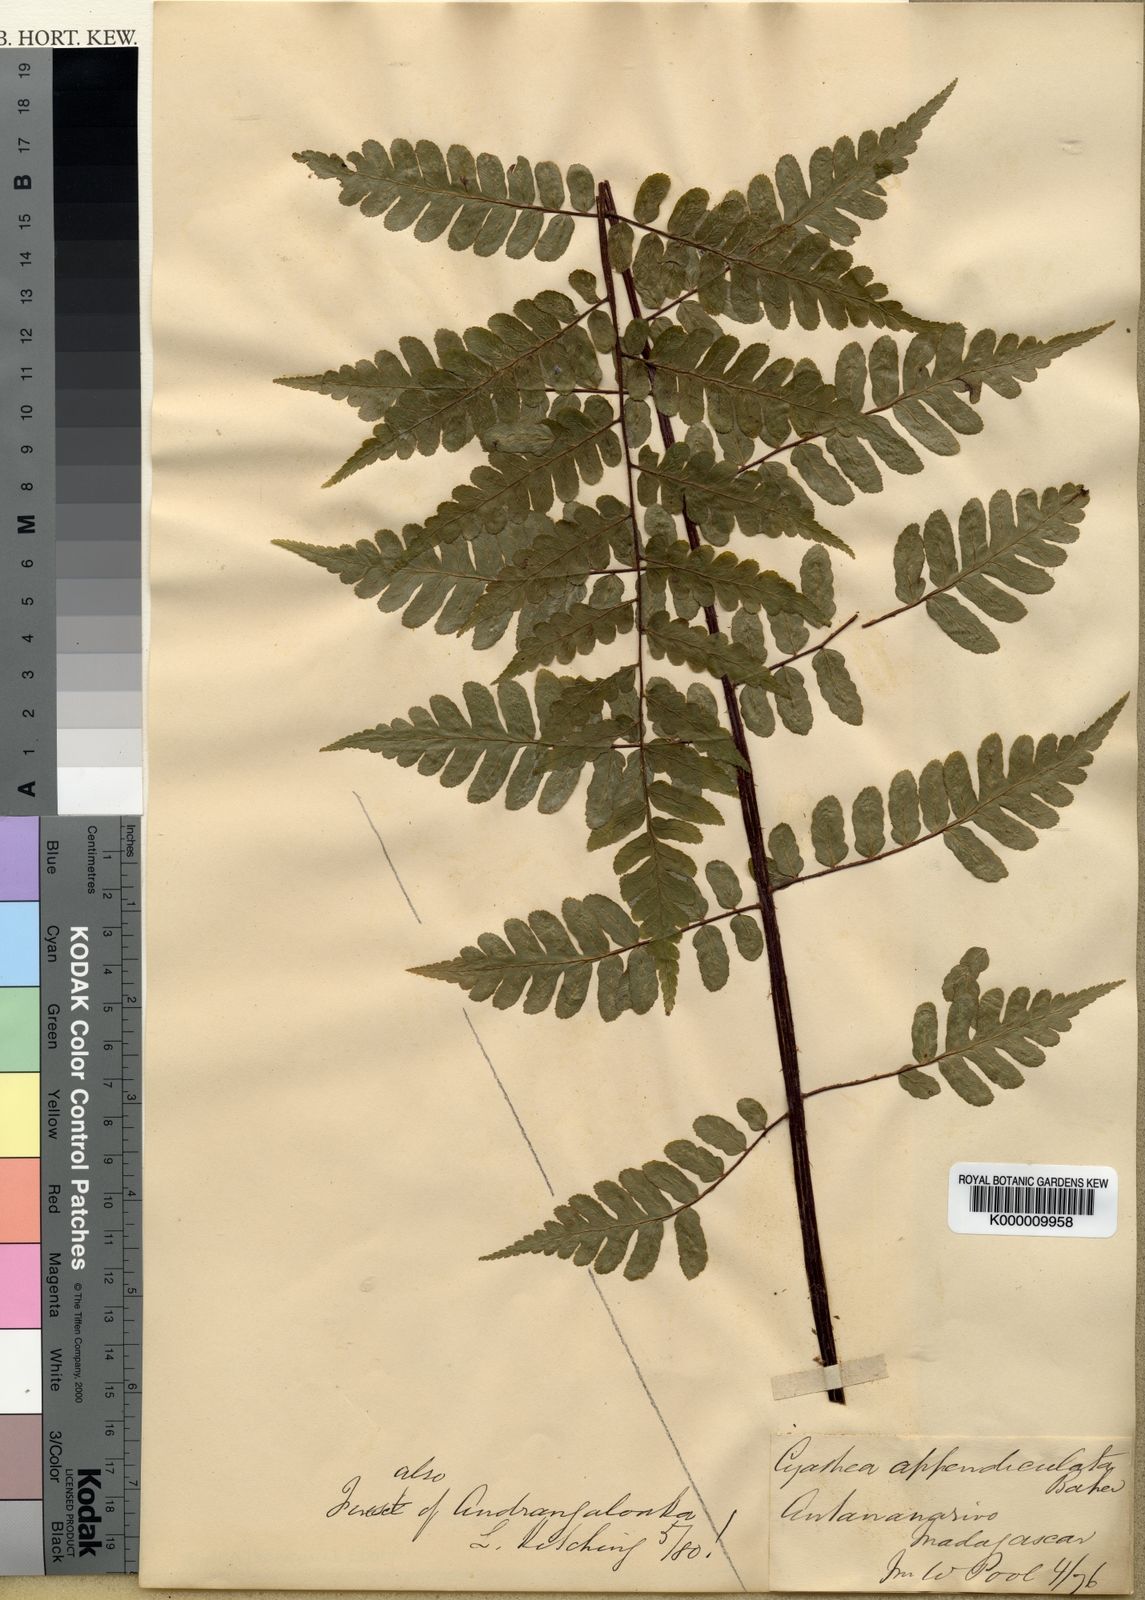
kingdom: Plantae
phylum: Tracheophyta
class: Polypodiopsida
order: Cyatheales
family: Cyatheaceae
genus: Alsophila
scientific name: Alsophila appendiculata
